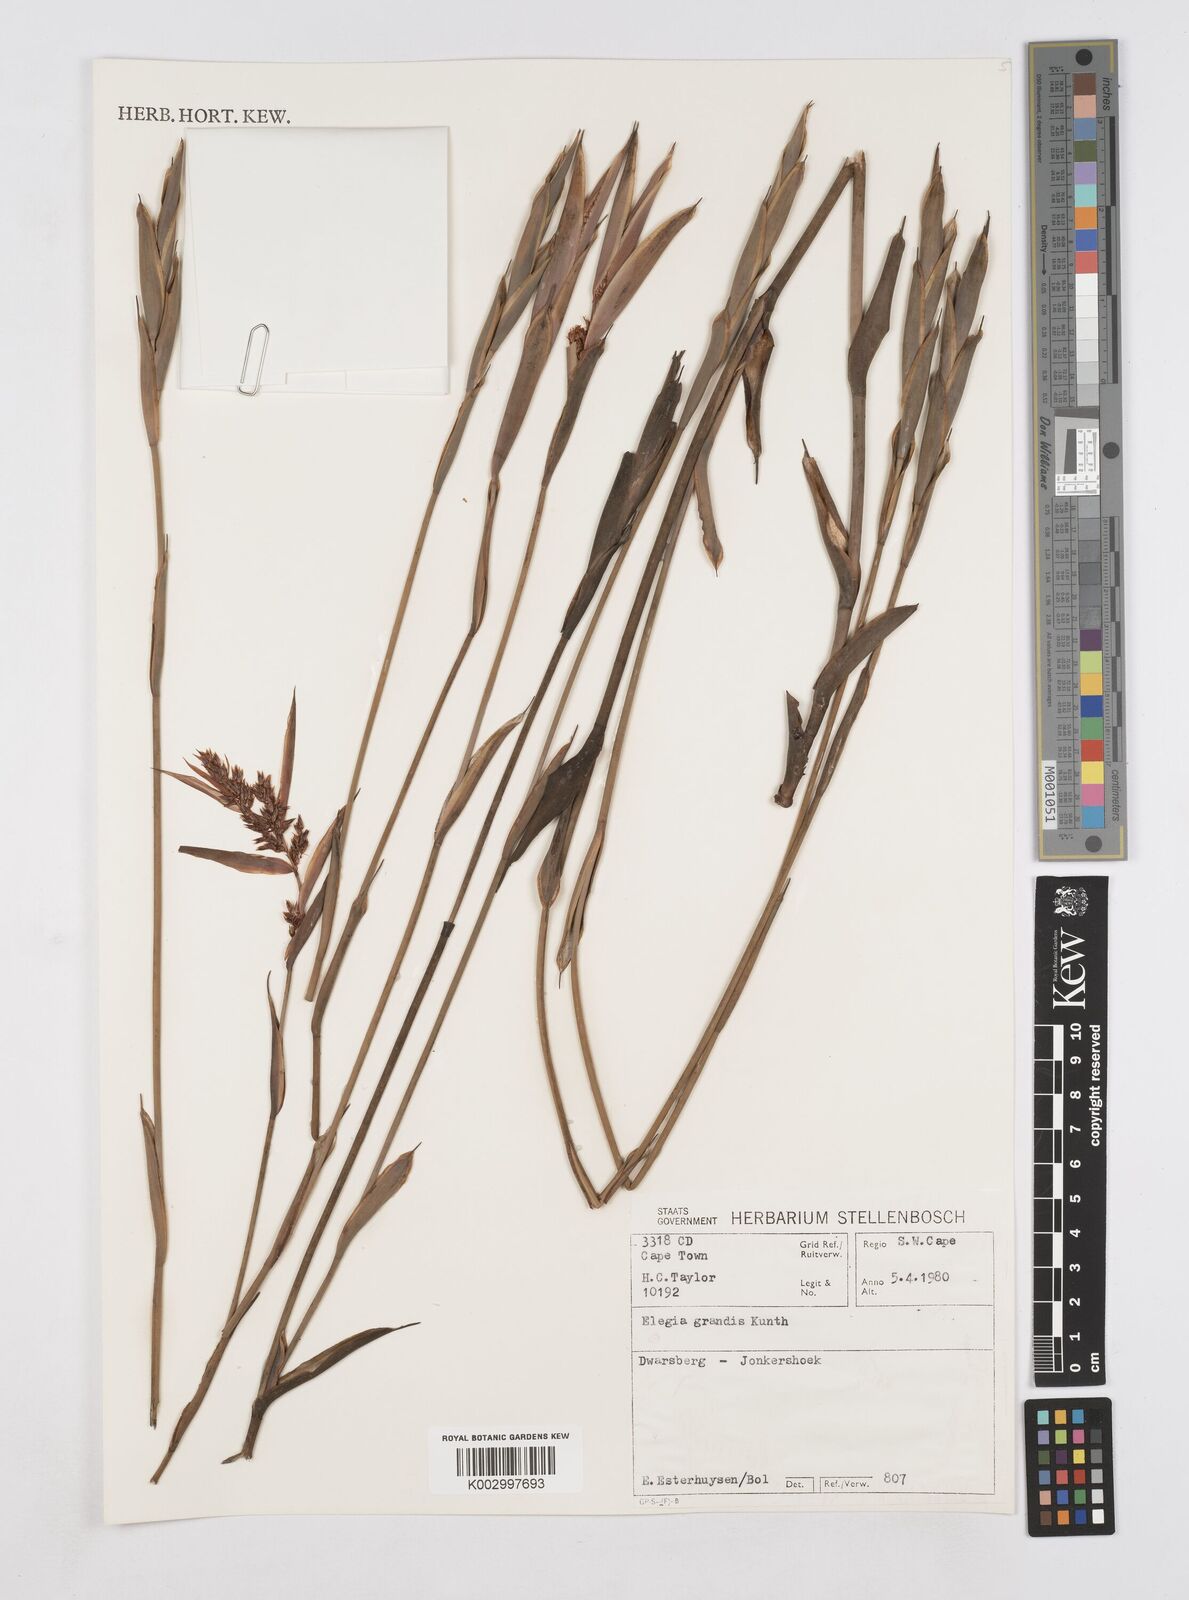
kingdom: Plantae
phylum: Tracheophyta
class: Liliopsida
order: Poales
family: Restionaceae
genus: Elegia
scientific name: Elegia grandis
